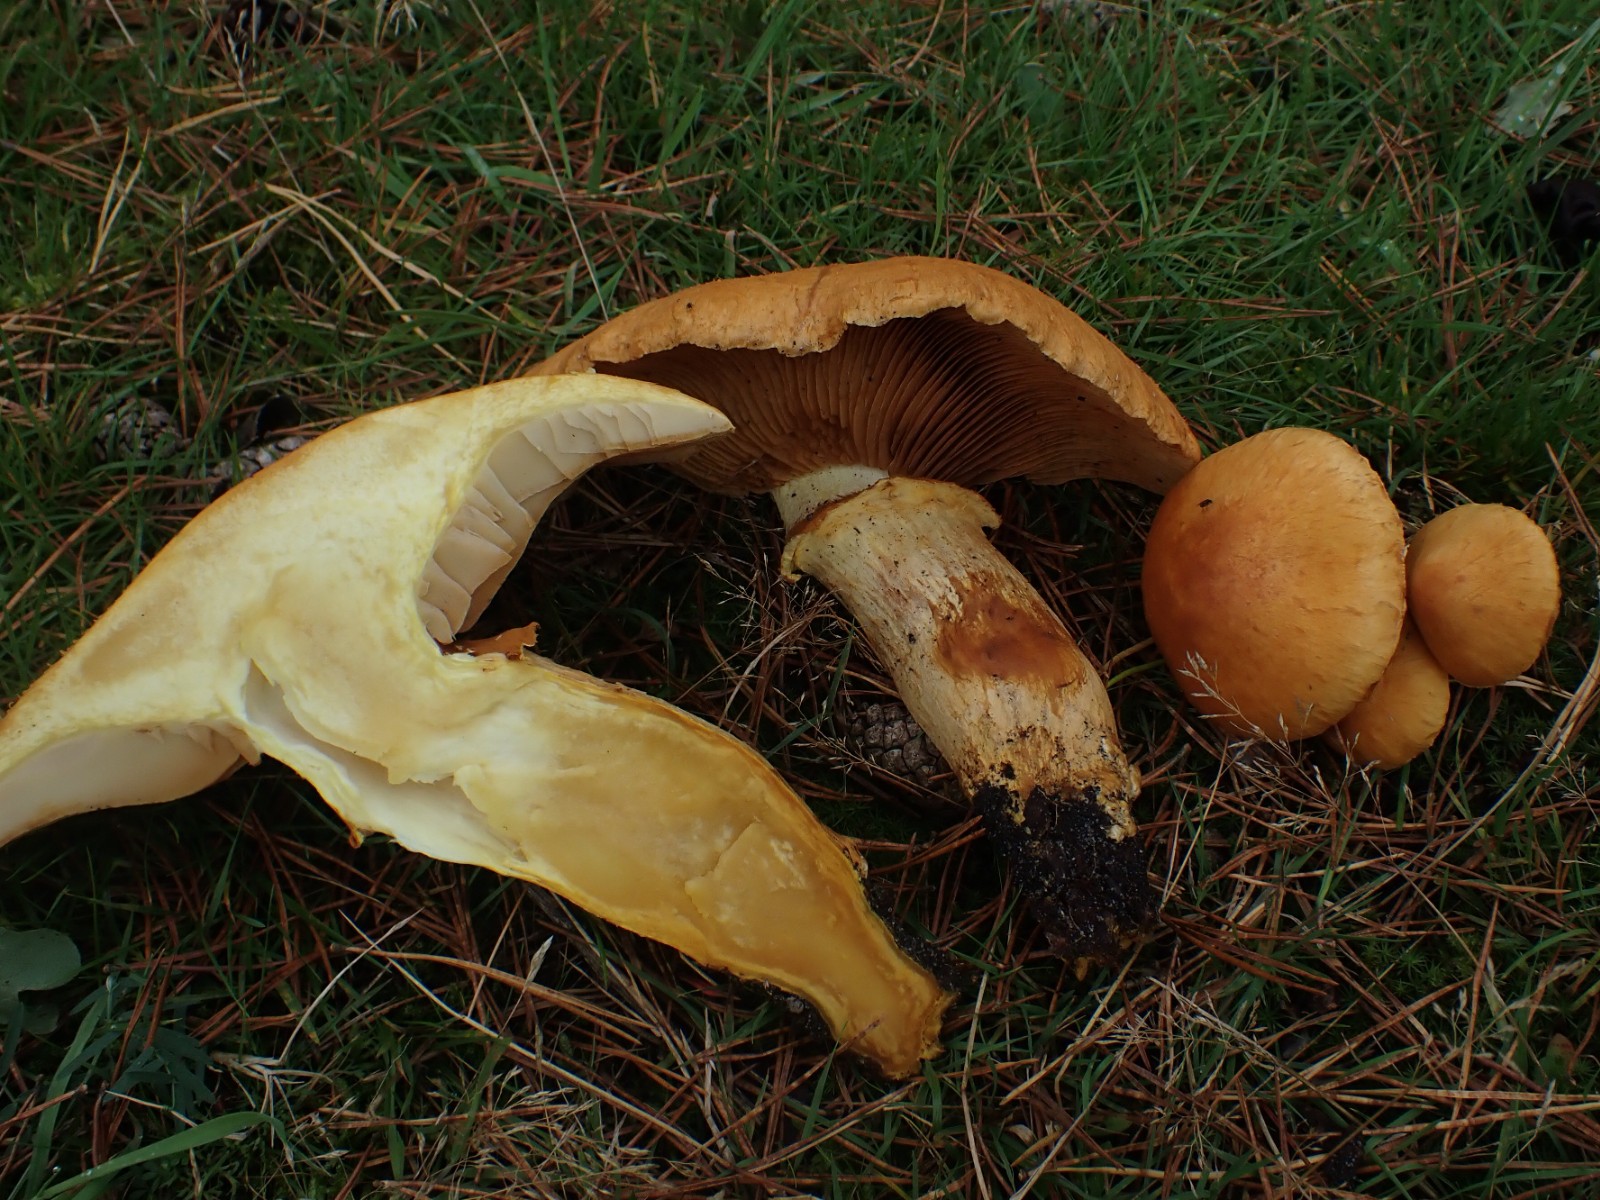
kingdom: Fungi
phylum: Basidiomycota
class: Agaricomycetes
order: Agaricales
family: Hymenogastraceae
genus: Gymnopilus
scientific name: Gymnopilus spectabilis
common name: fibret flammehat
